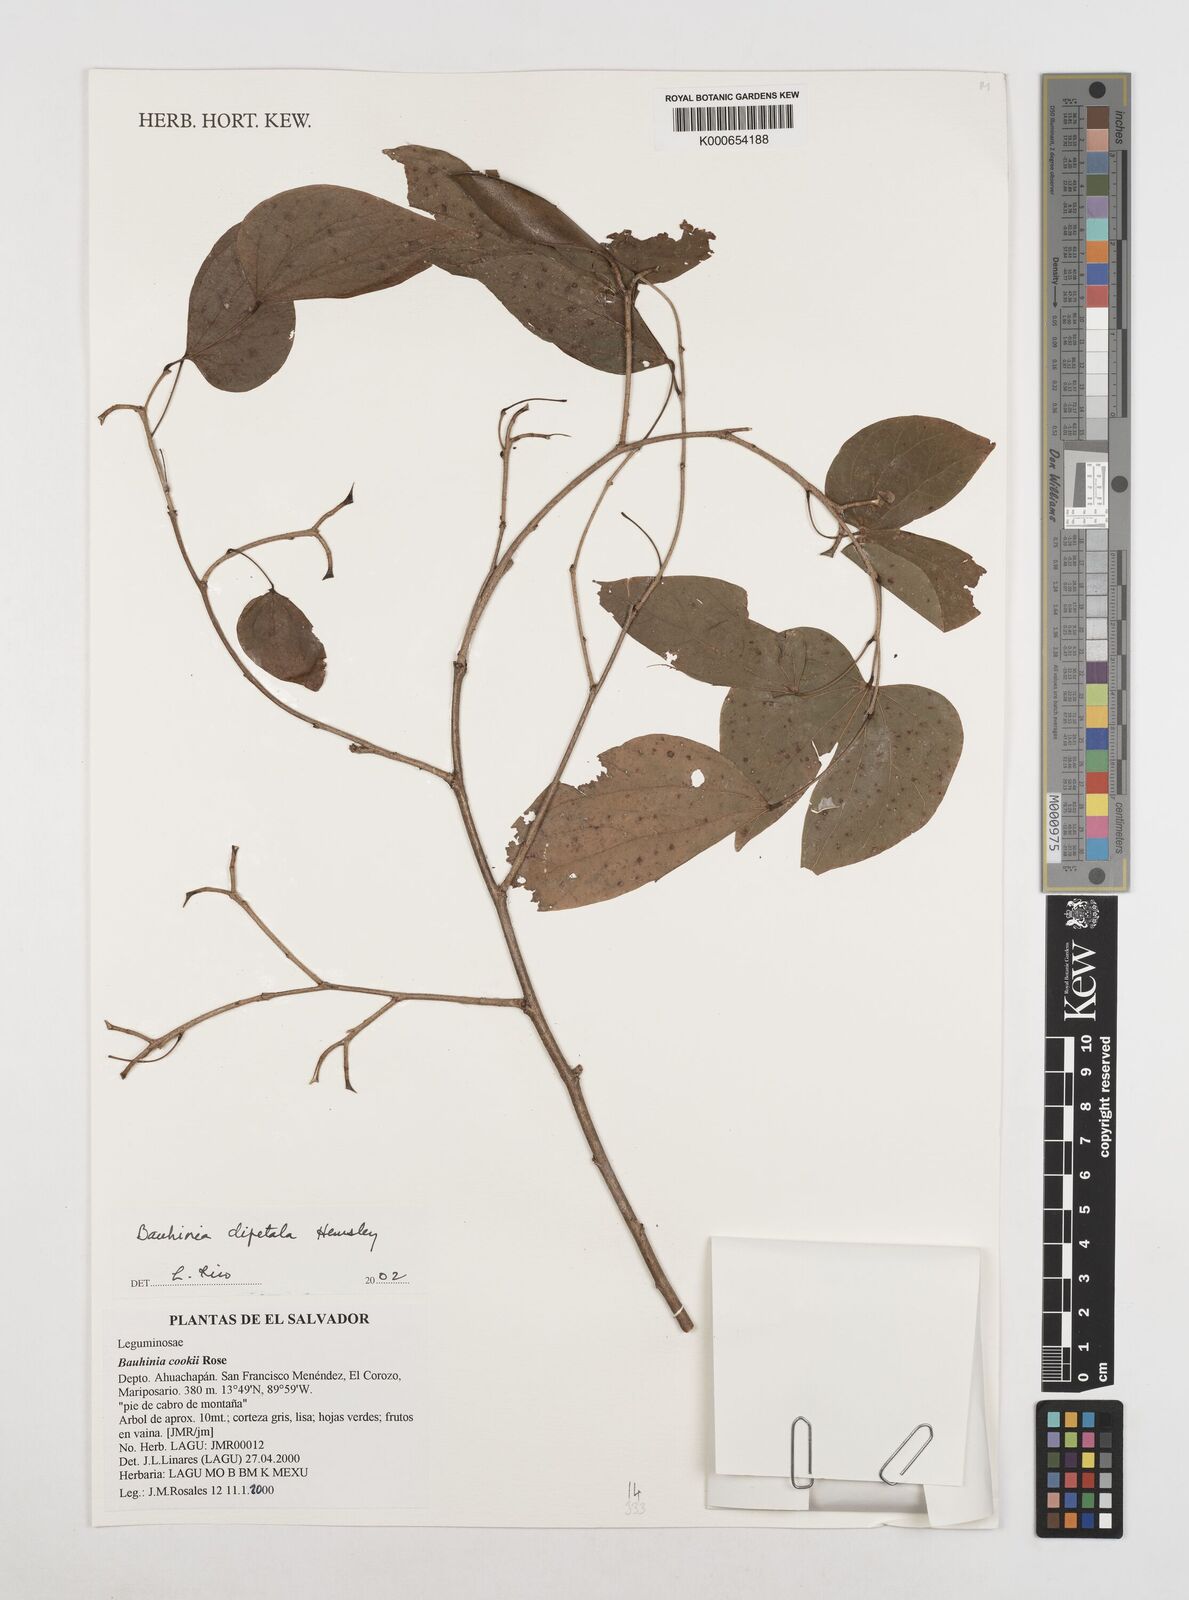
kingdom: Plantae
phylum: Tracheophyta
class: Magnoliopsida
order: Fabales
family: Fabaceae
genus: Bauhinia
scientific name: Bauhinia dipetala
